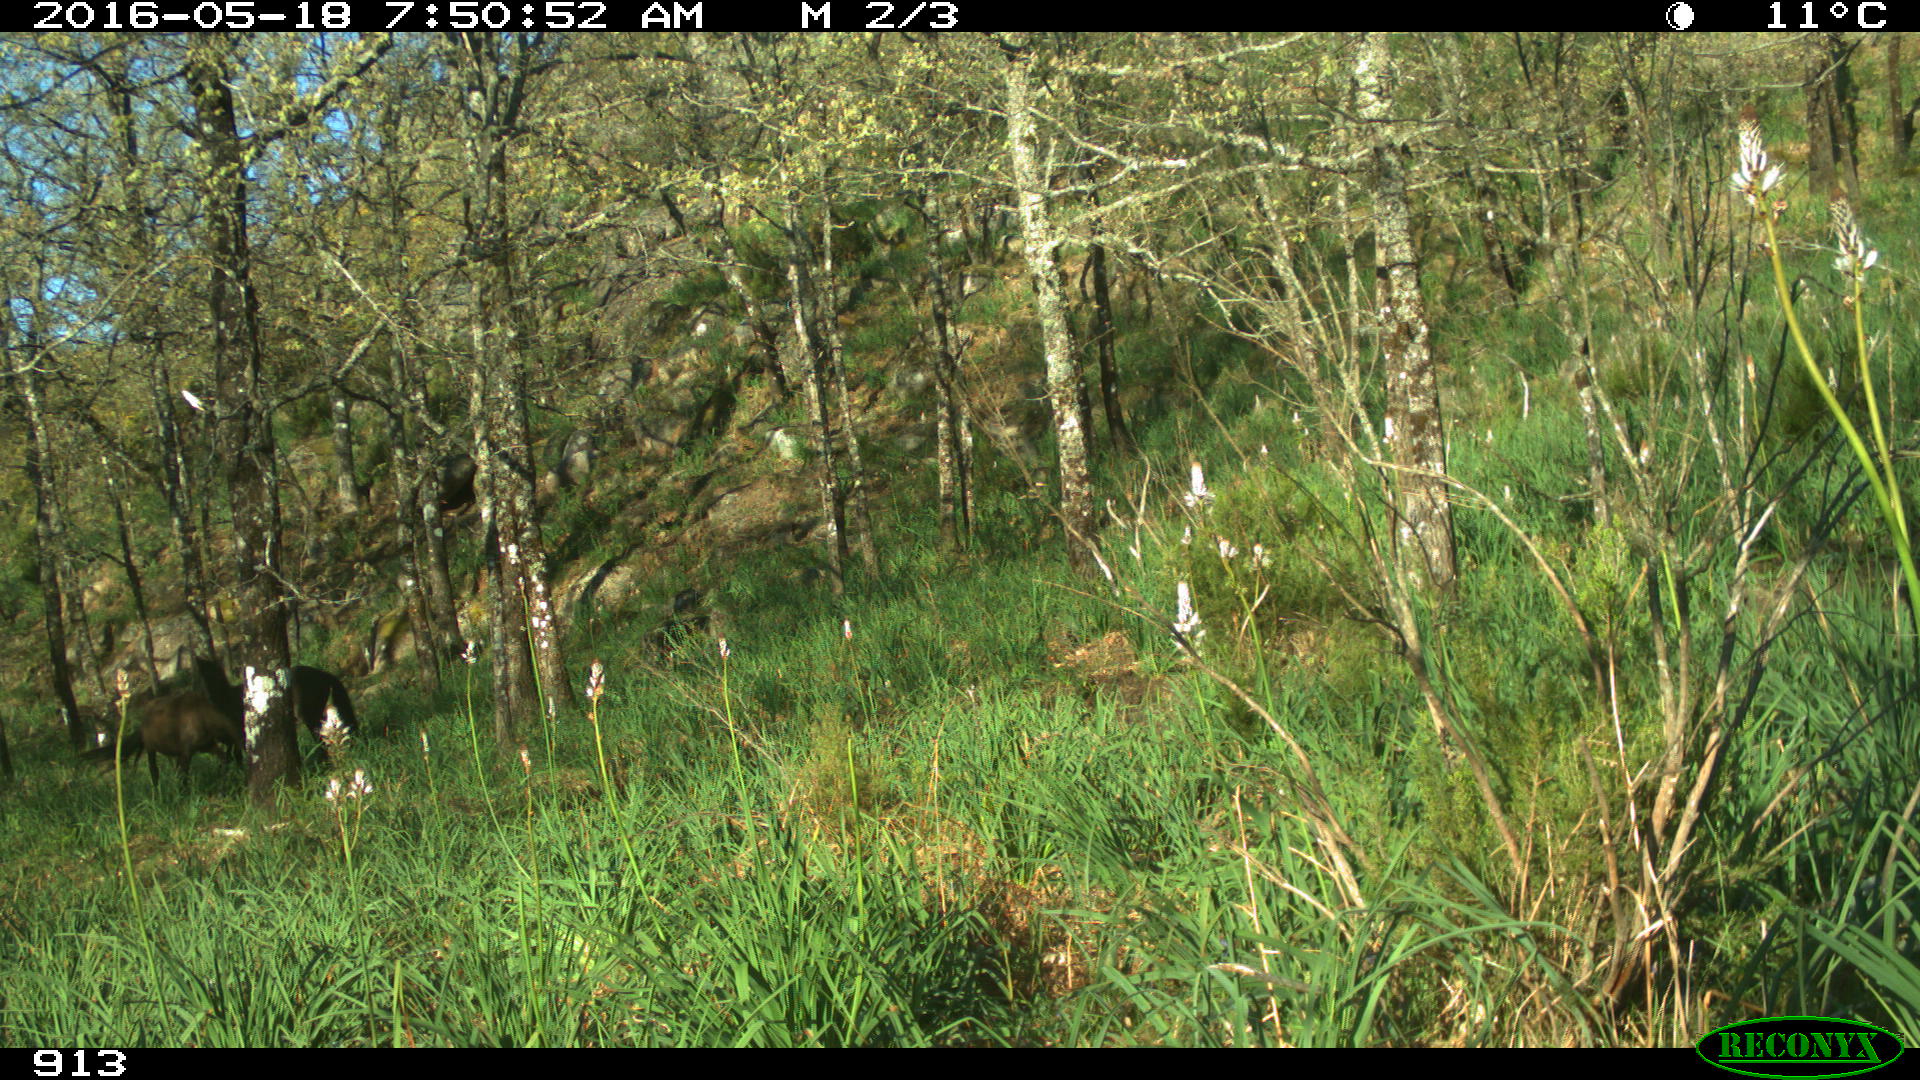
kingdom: Animalia
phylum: Chordata
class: Mammalia
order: Perissodactyla
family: Equidae
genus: Equus
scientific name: Equus caballus
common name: Horse
